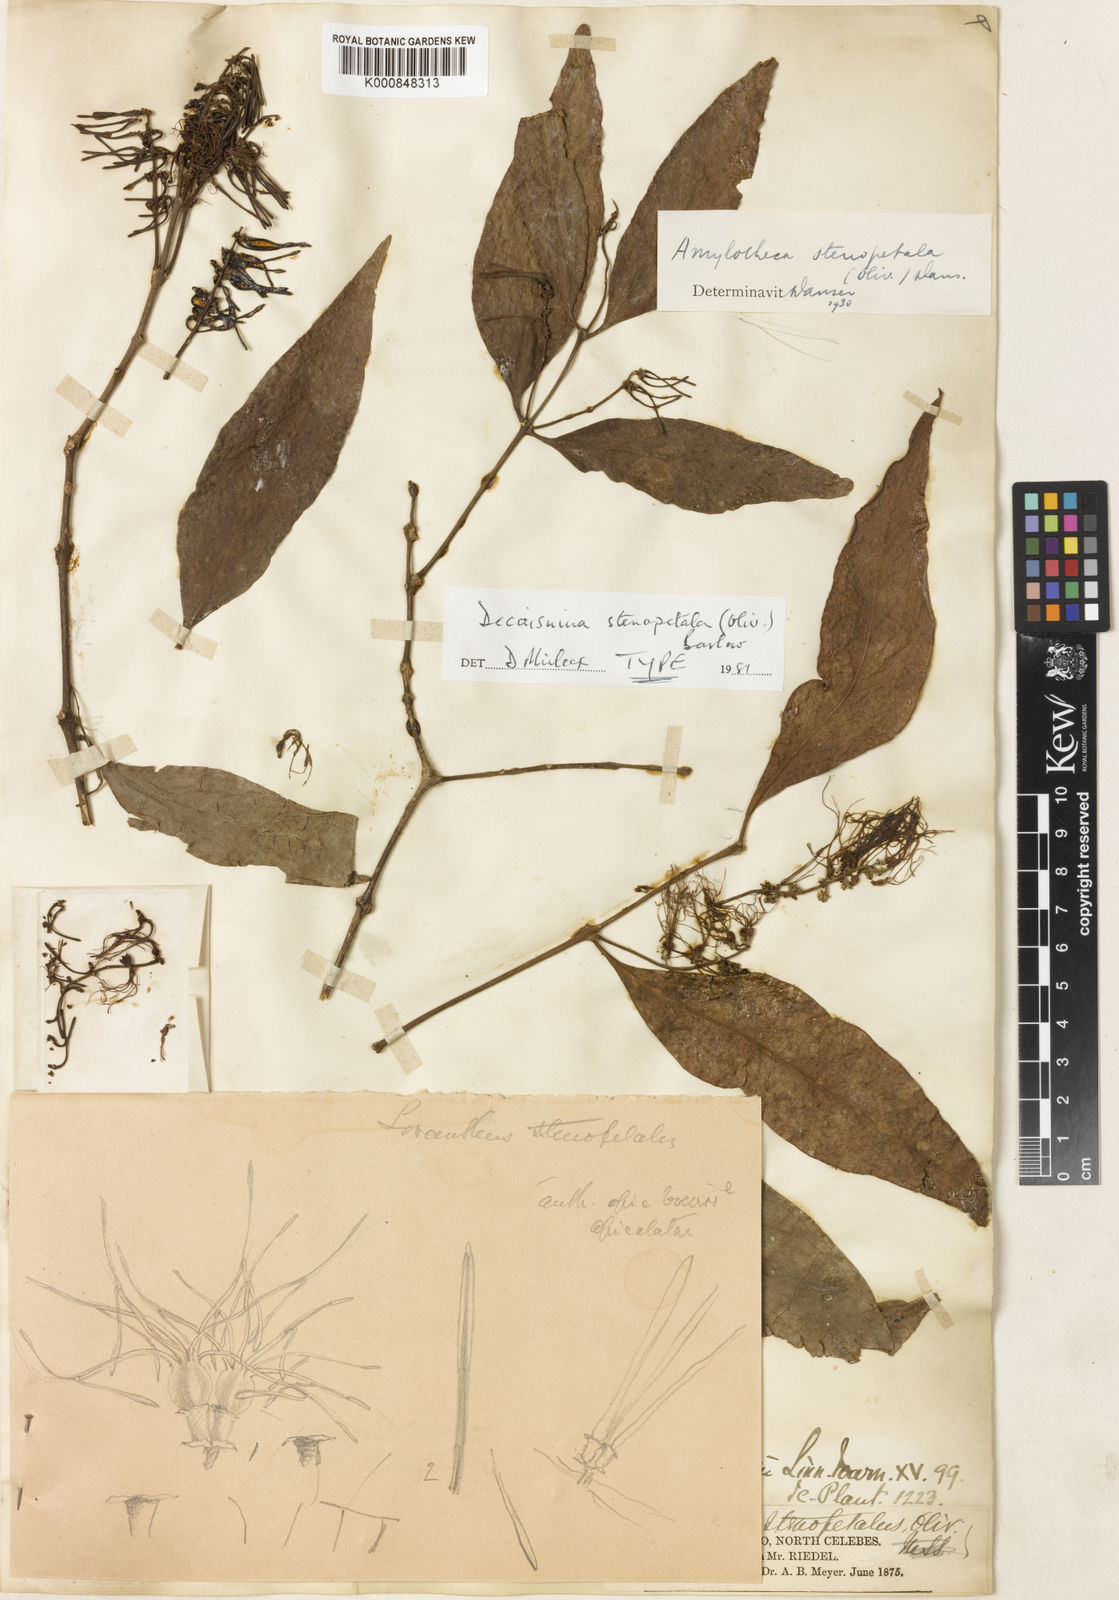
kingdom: Plantae
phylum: Tracheophyta
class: Magnoliopsida
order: Santalales
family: Loranthaceae
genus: Decaisnina
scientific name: Decaisnina stenopetala
